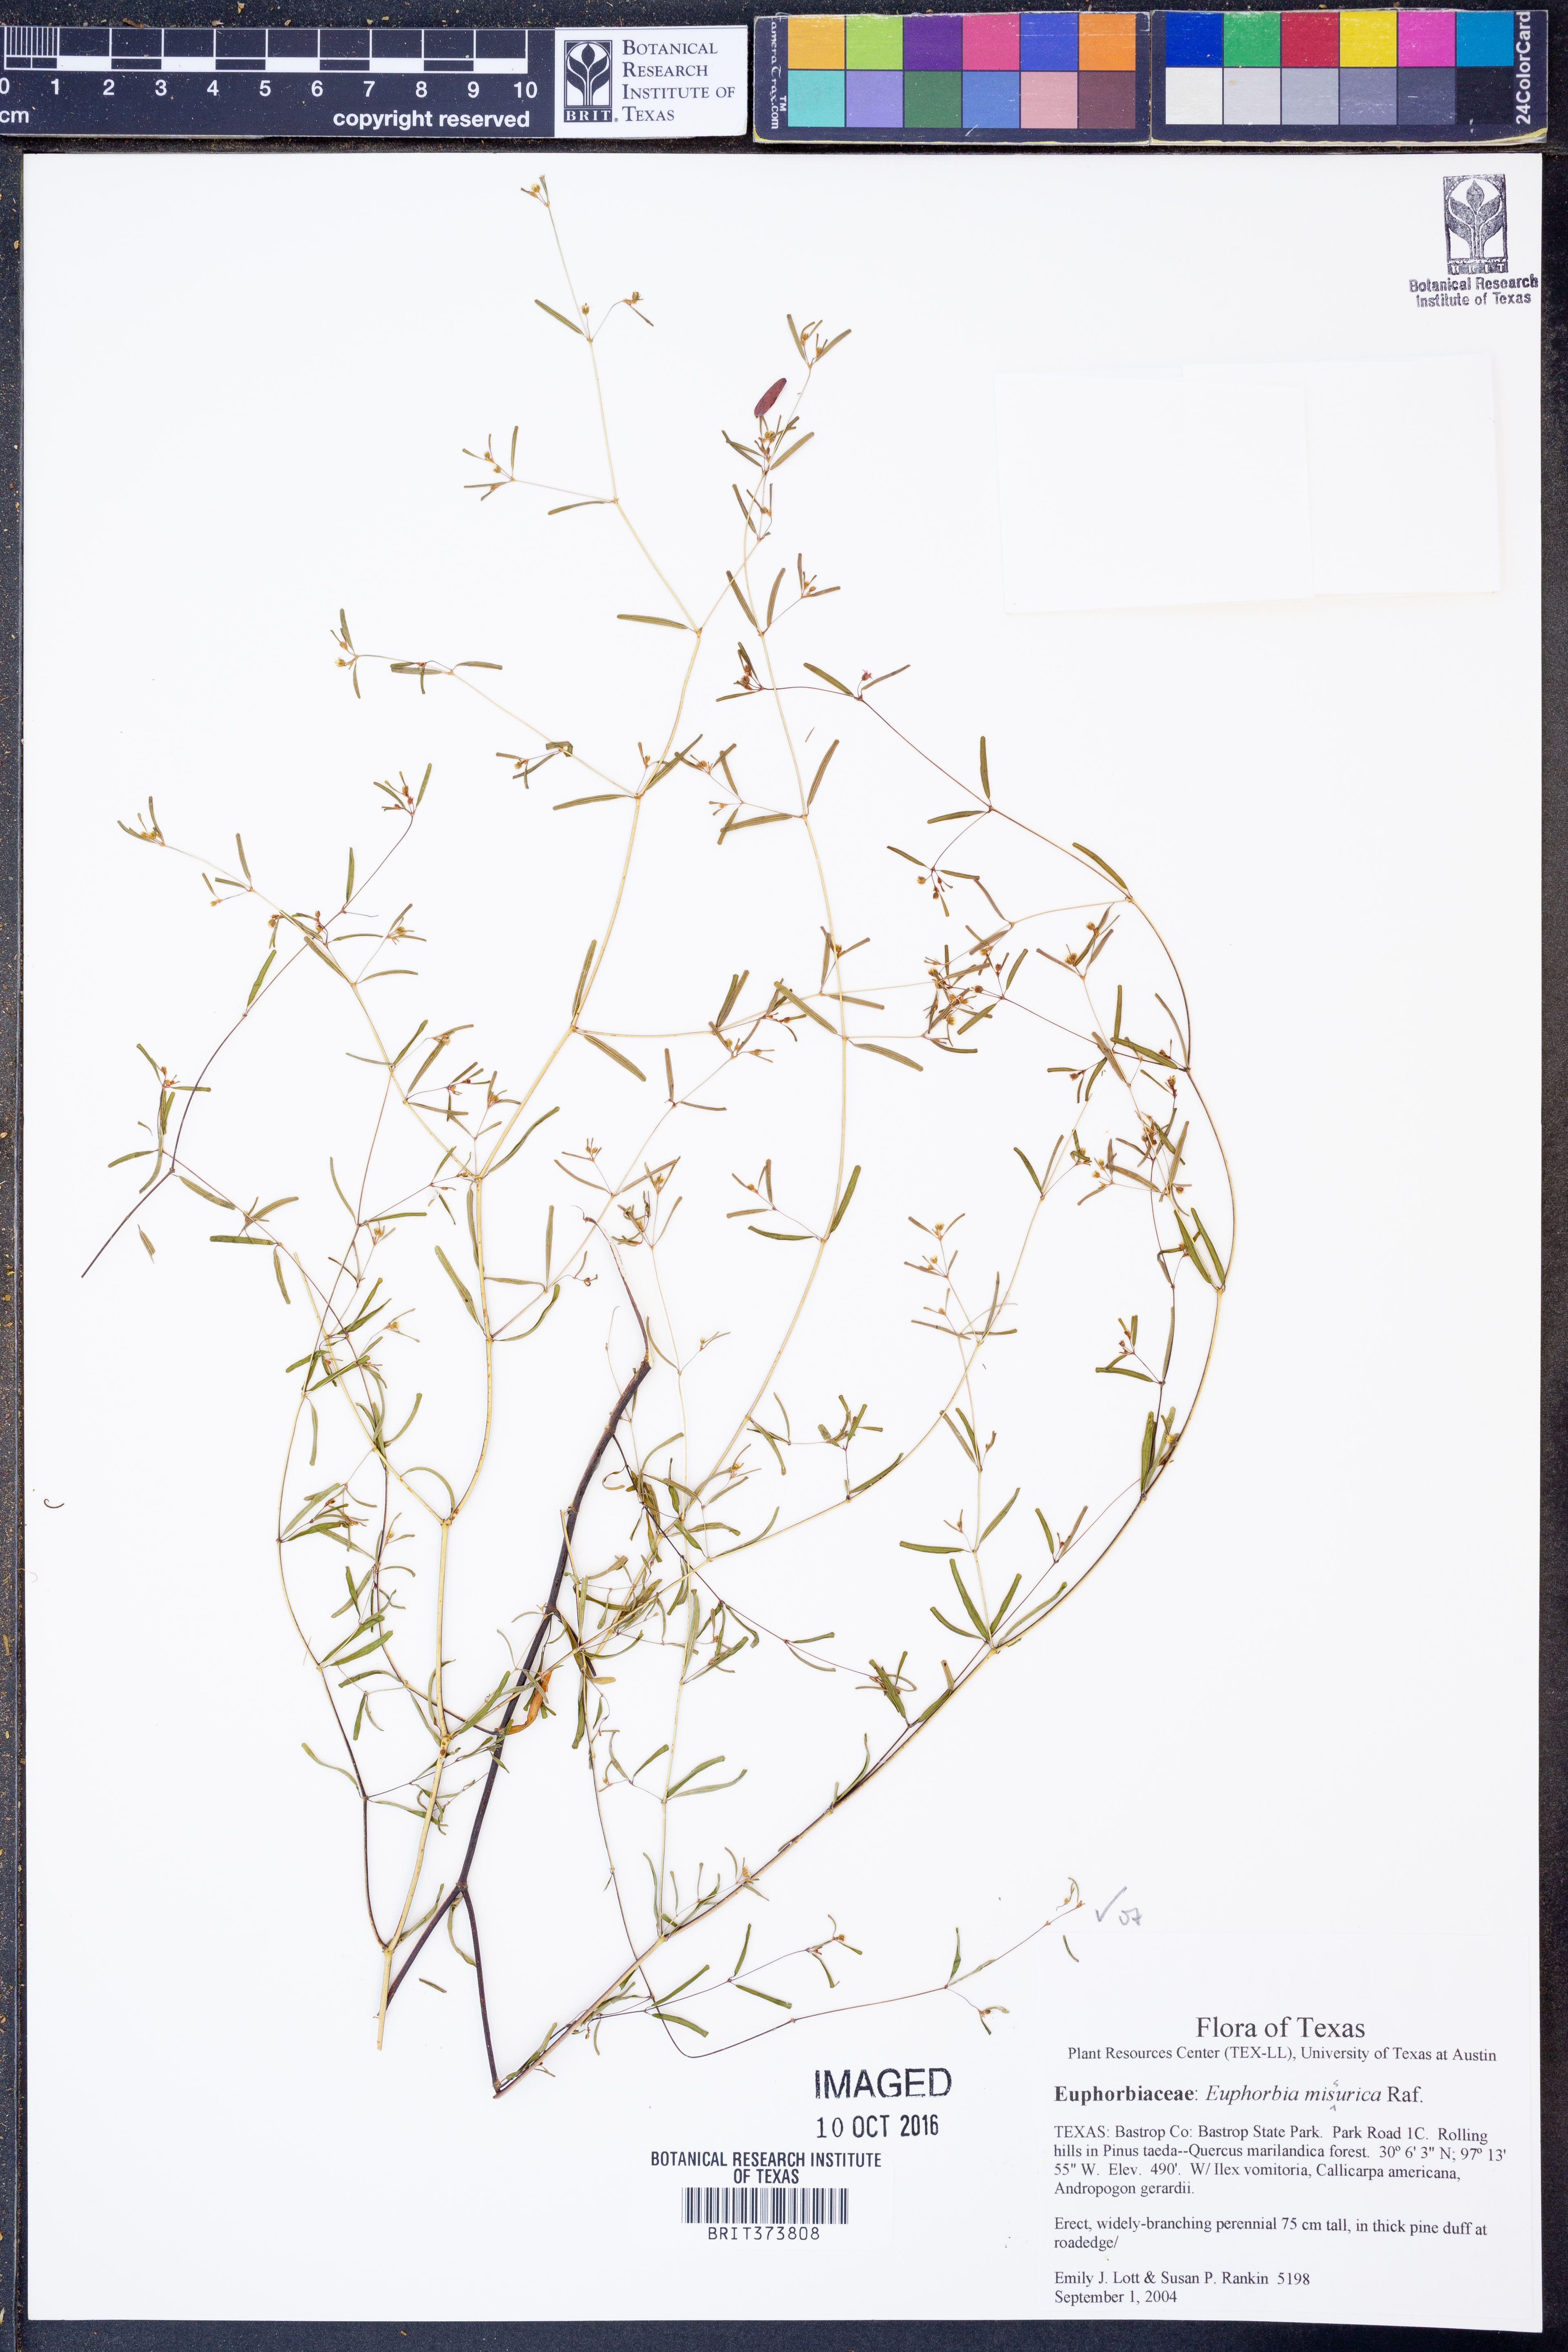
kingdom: Plantae
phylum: Tracheophyta
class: Magnoliopsida
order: Malpighiales
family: Euphorbiaceae
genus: Euphorbia
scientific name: Euphorbia missurica
